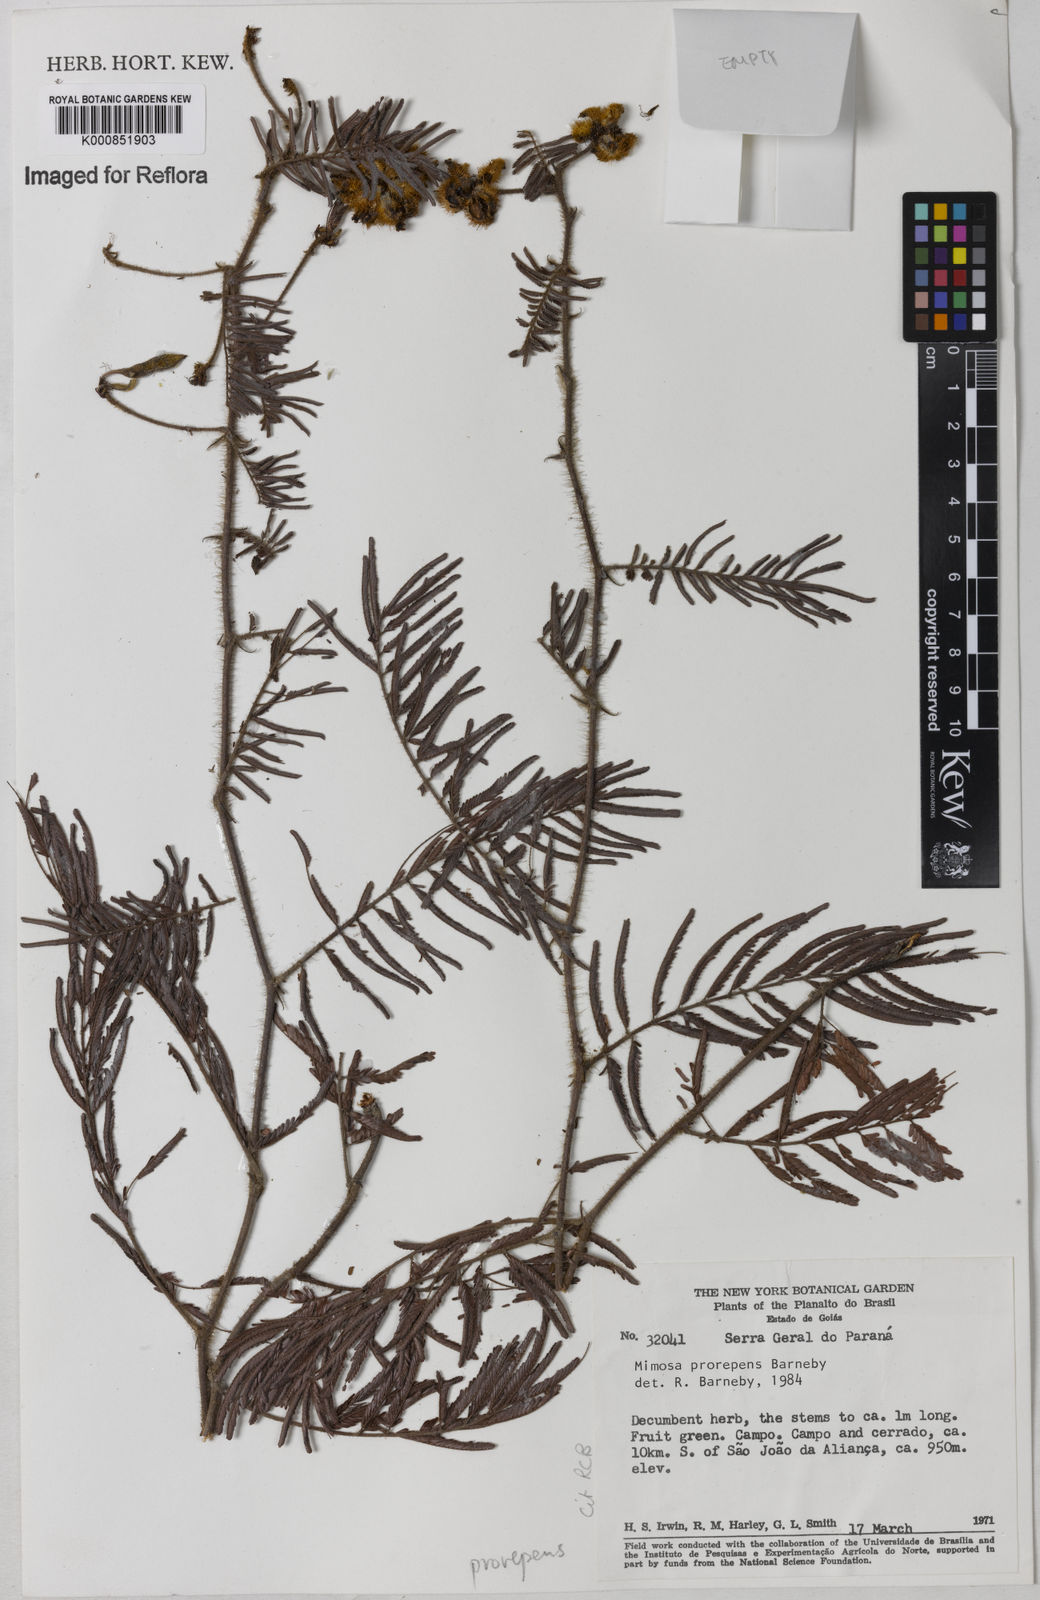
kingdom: Plantae
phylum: Tracheophyta
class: Magnoliopsida
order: Fabales
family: Fabaceae
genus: Mimosa
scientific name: Mimosa prorepens
